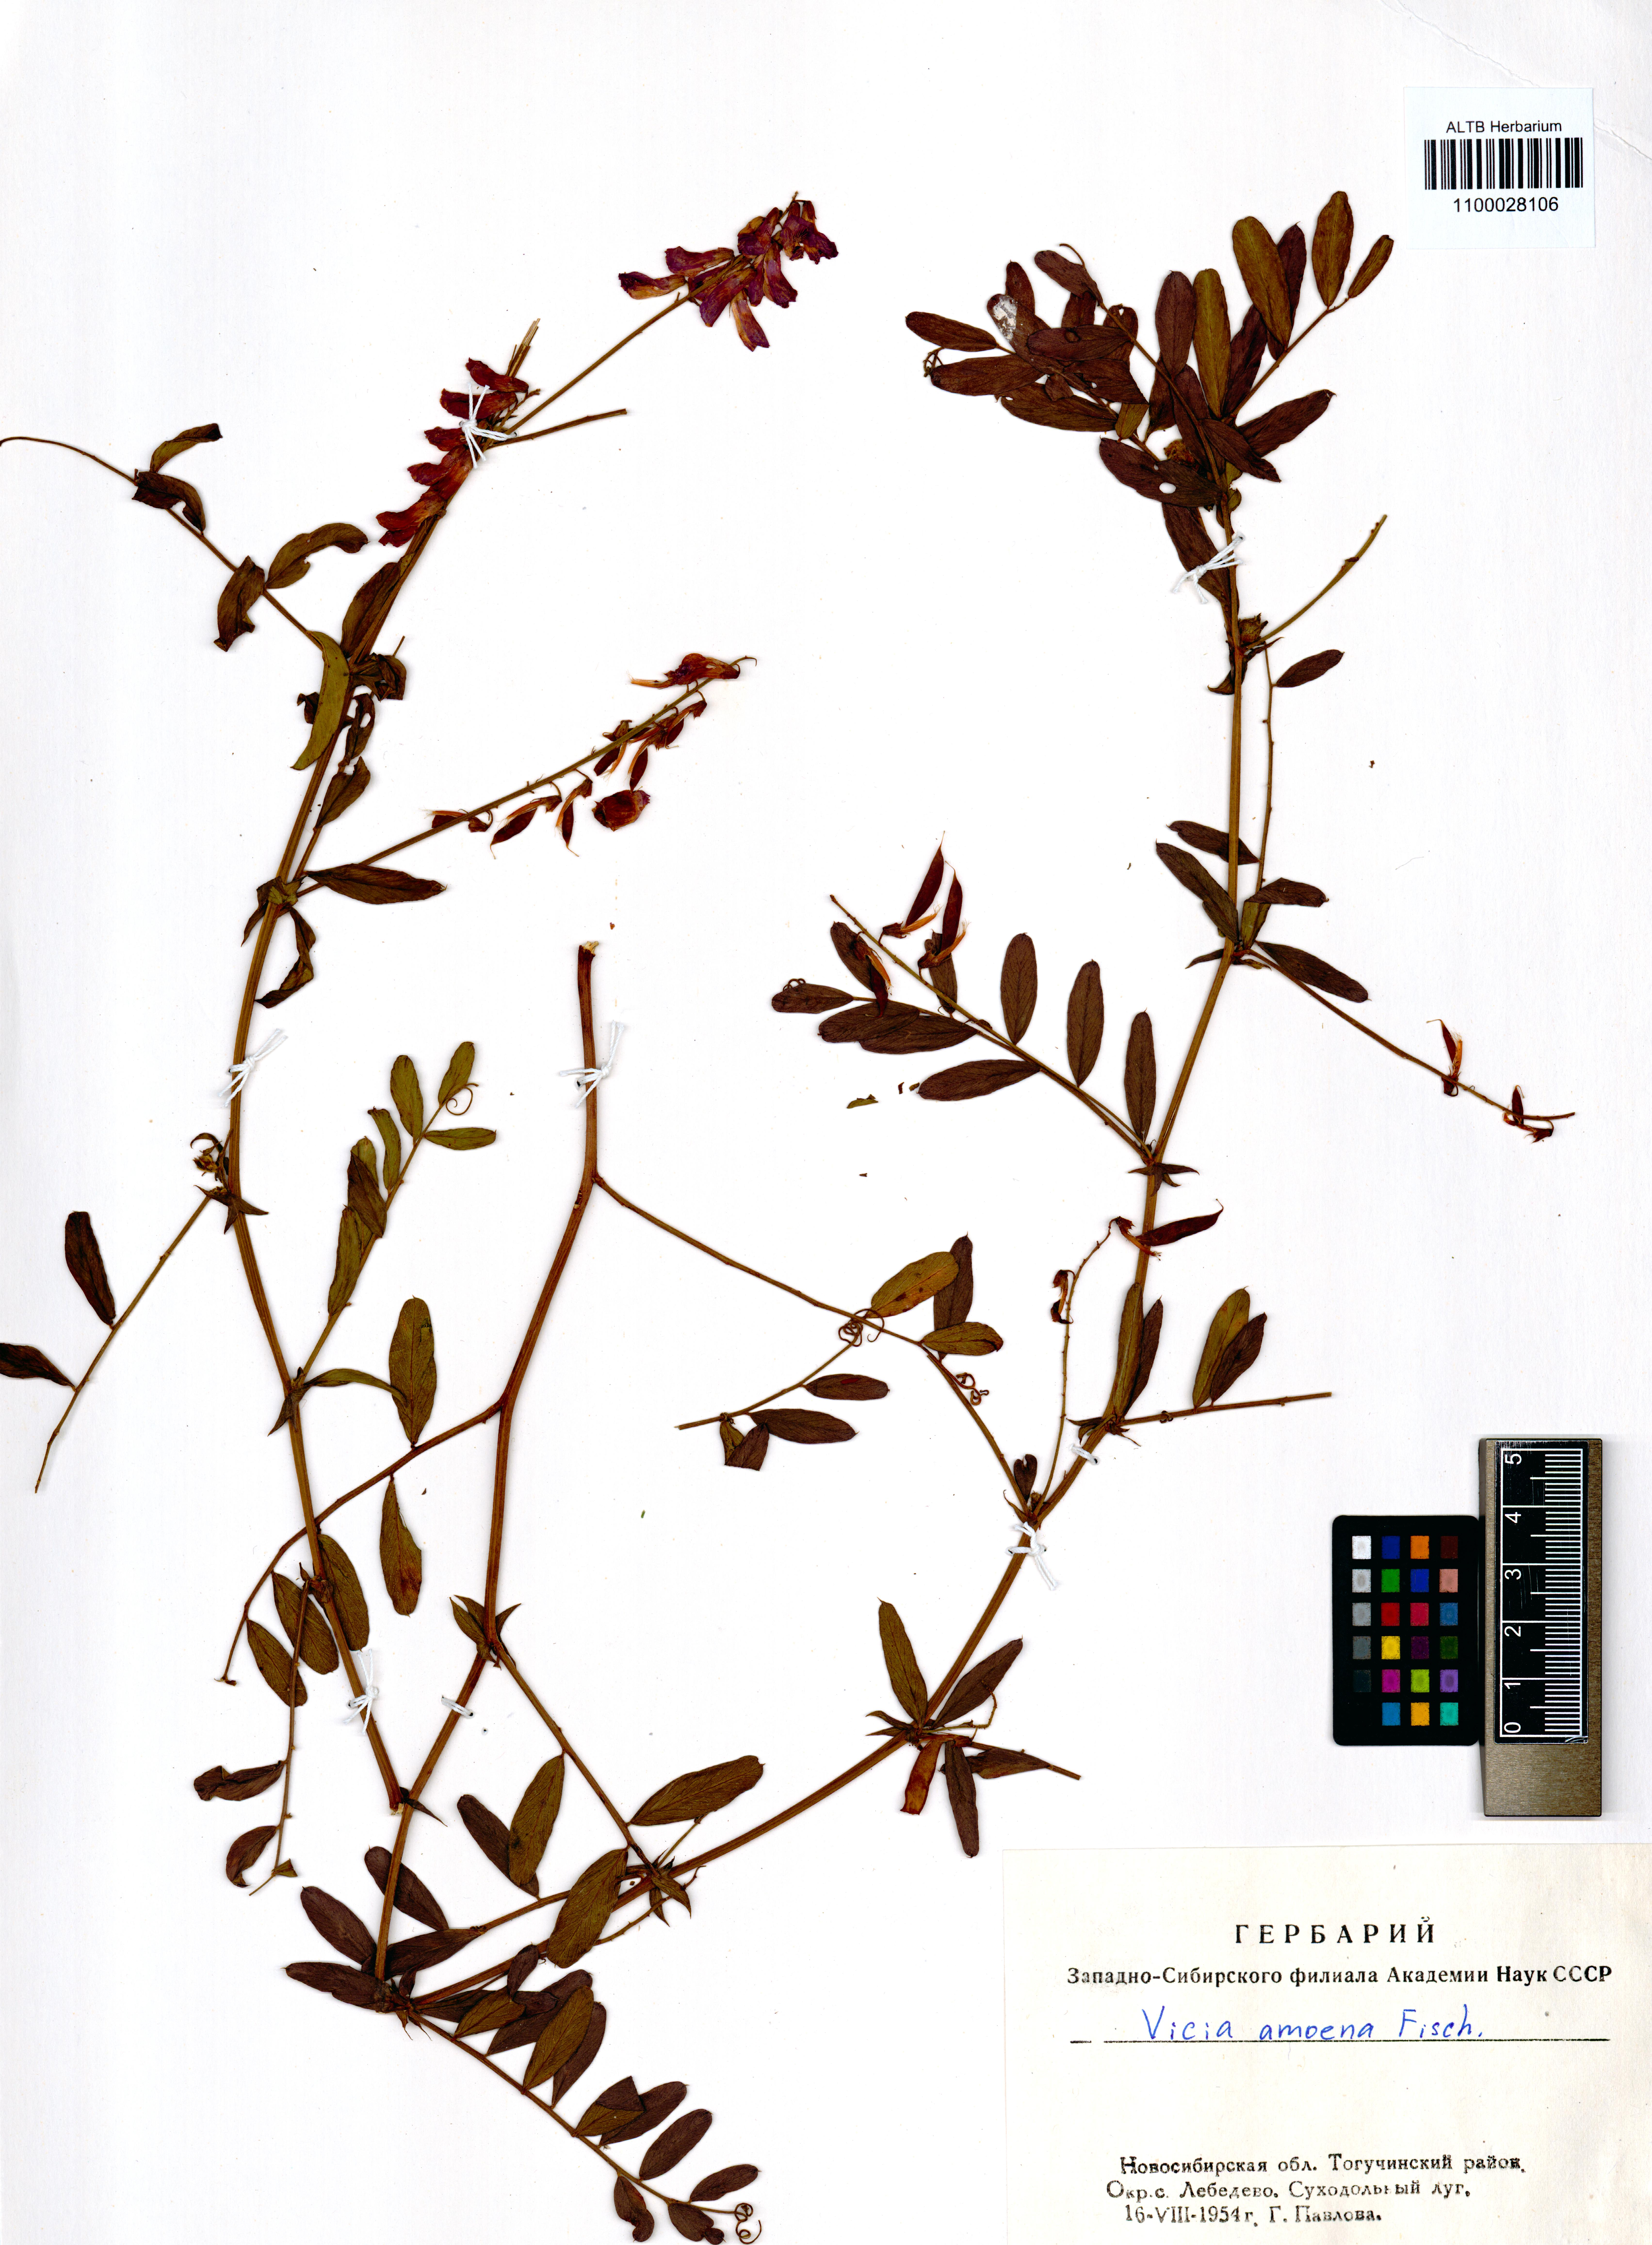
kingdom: Plantae
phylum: Tracheophyta
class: Magnoliopsida
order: Fabales
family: Fabaceae
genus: Vicia
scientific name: Vicia amoena
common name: Cheder ebs
